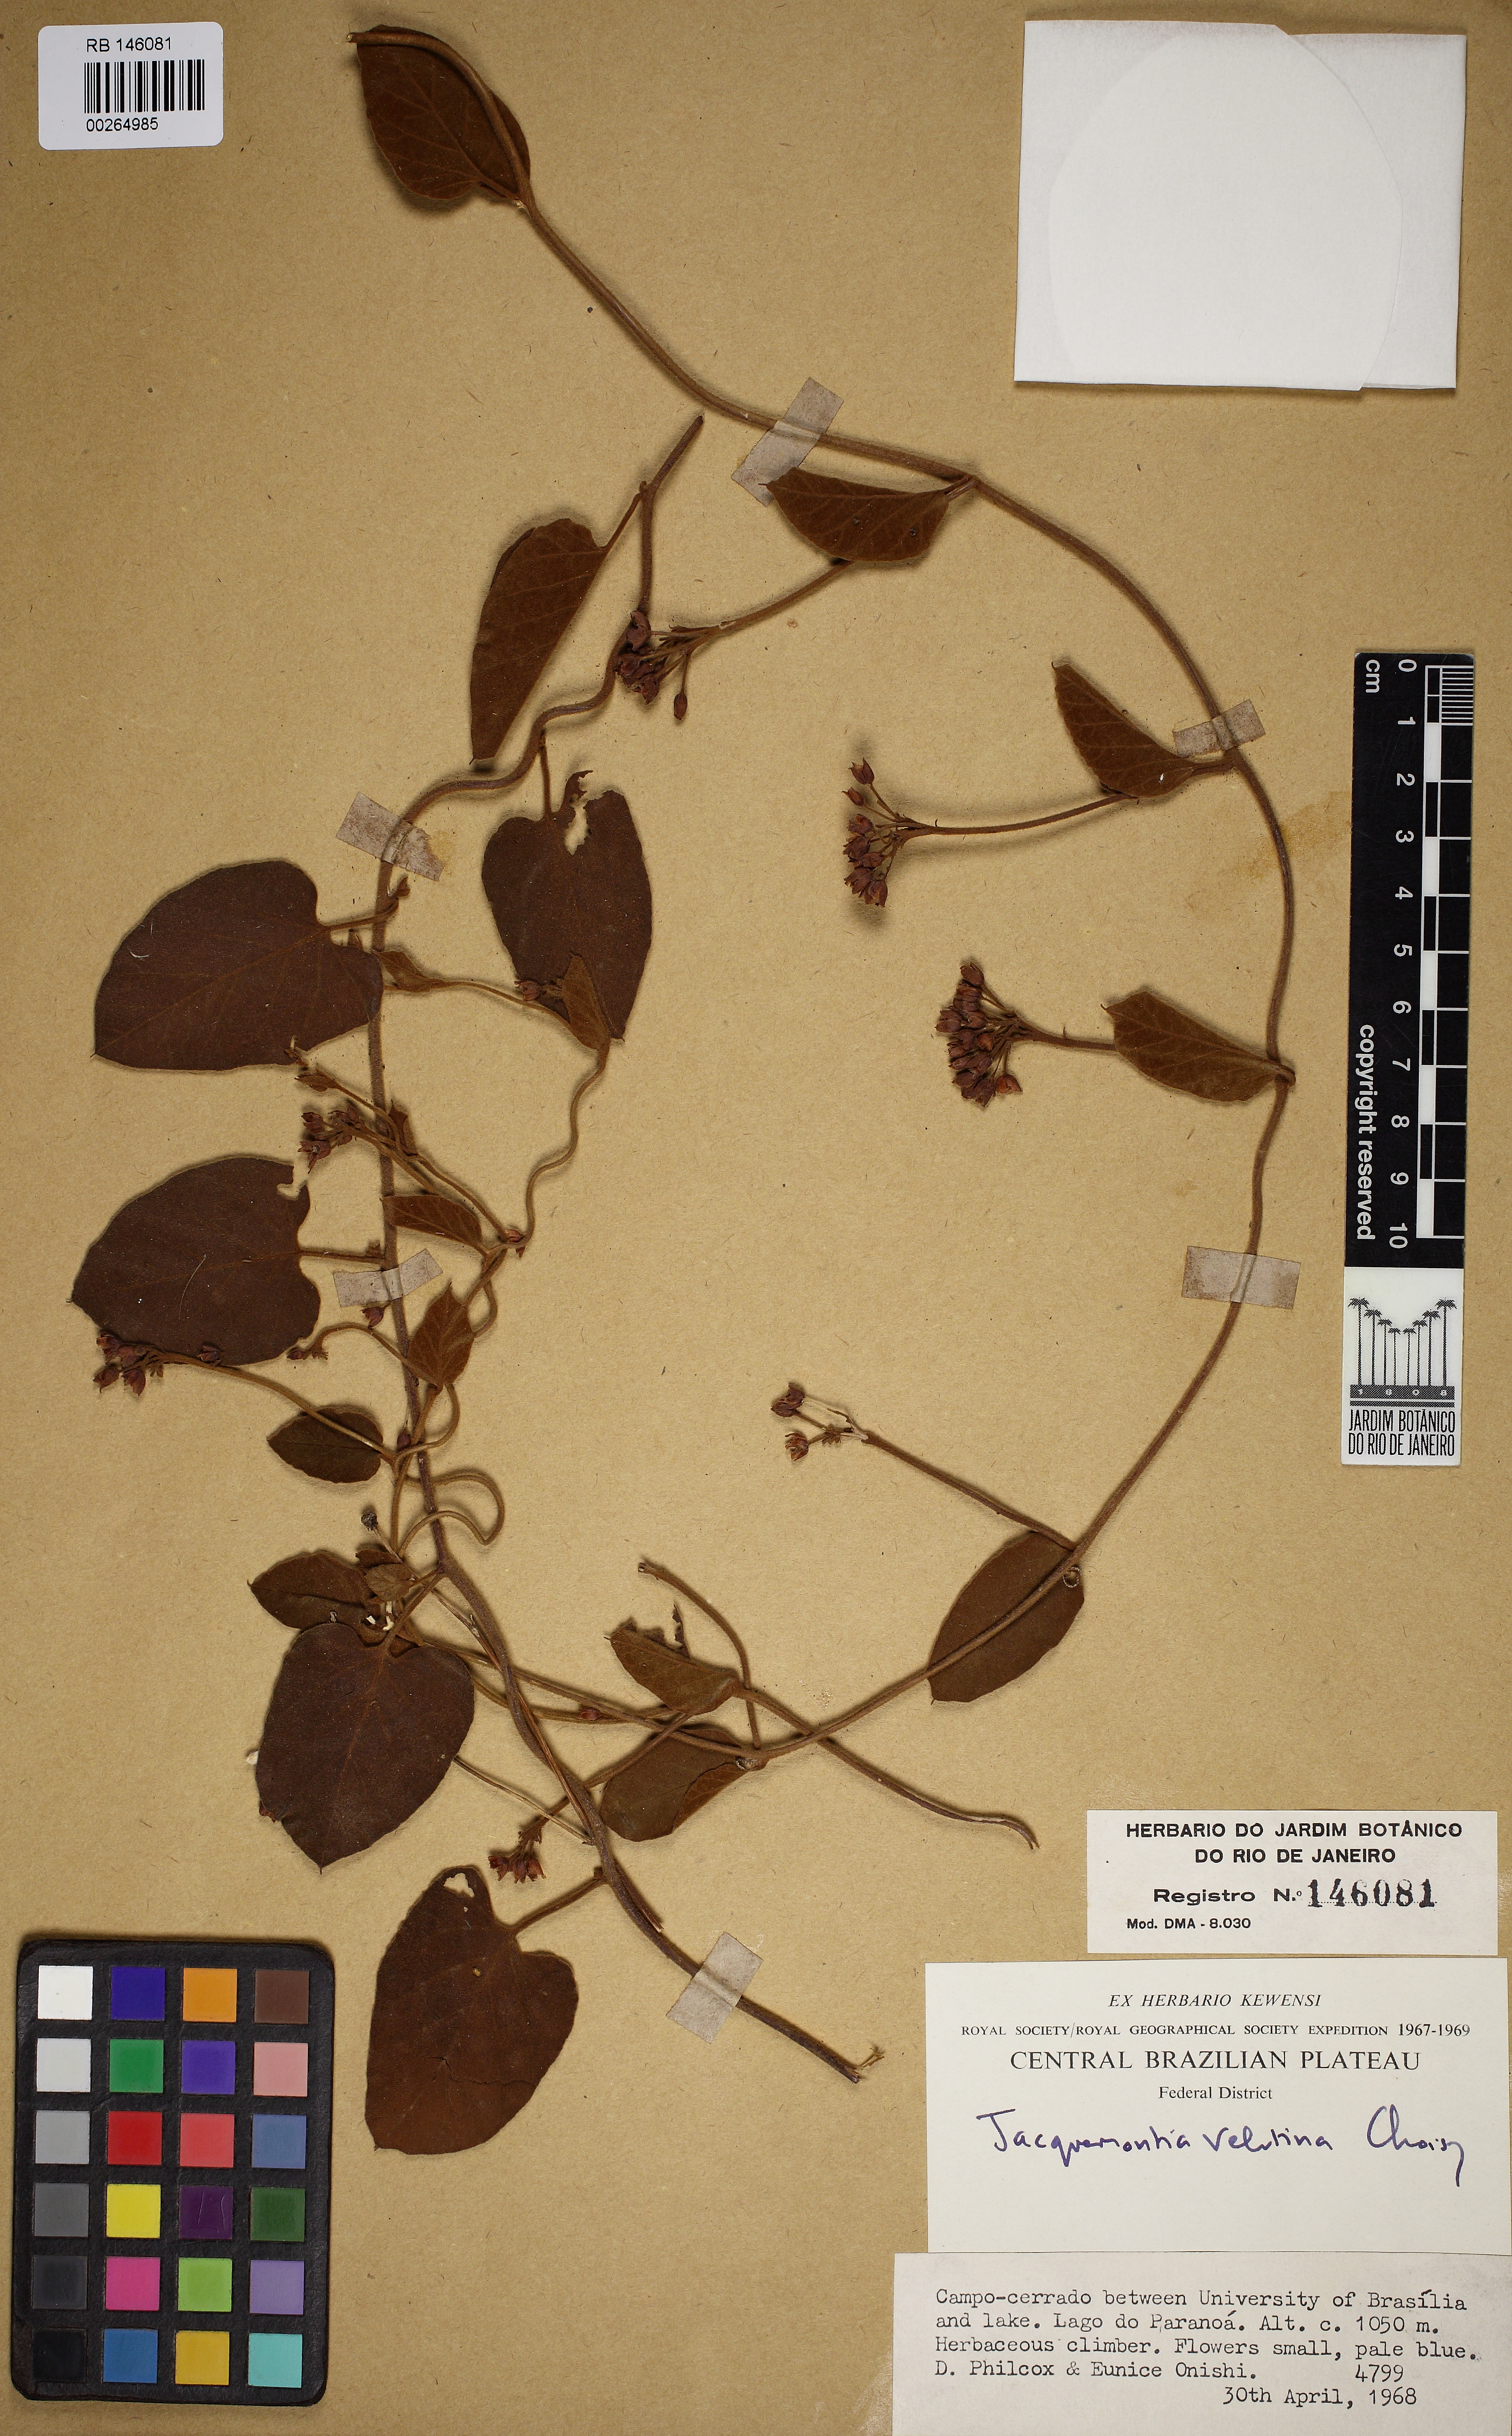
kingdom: Plantae
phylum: Tracheophyta
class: Magnoliopsida
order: Solanales
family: Convolvulaceae
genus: Jacquemontia
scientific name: Jacquemontia velutina
